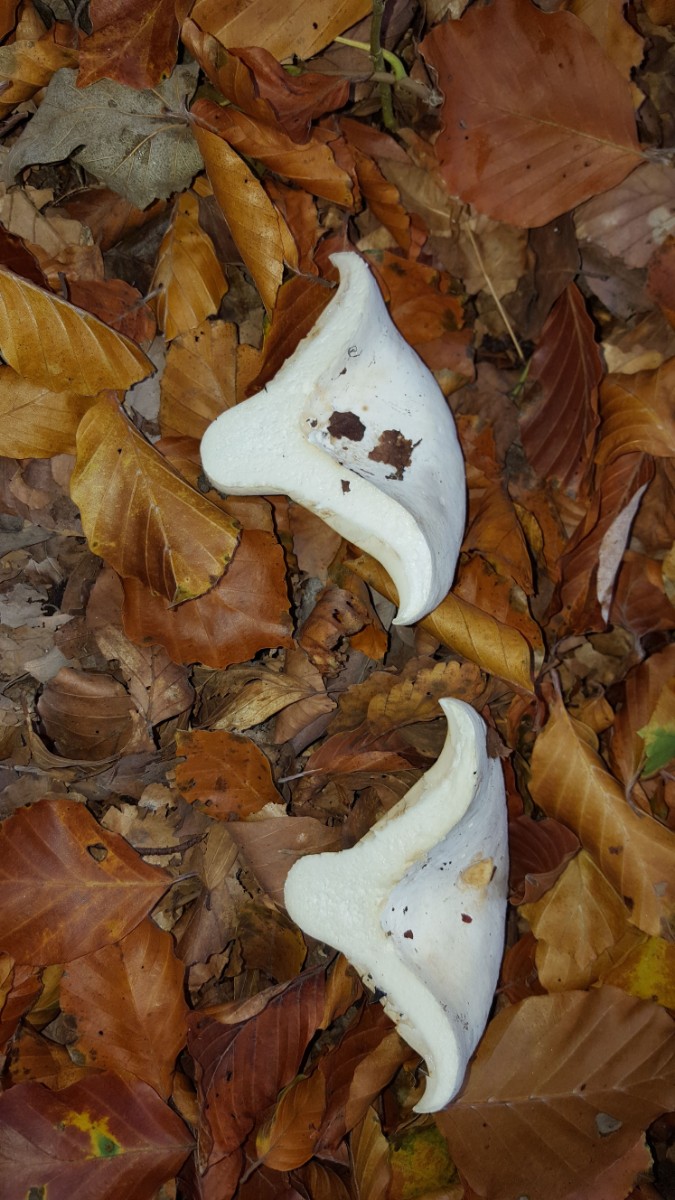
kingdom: Fungi
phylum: Basidiomycota
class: Agaricomycetes
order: Russulales
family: Russulaceae
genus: Lactifluus
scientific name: Lactifluus vellereus
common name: hvidfiltet mælkehat
